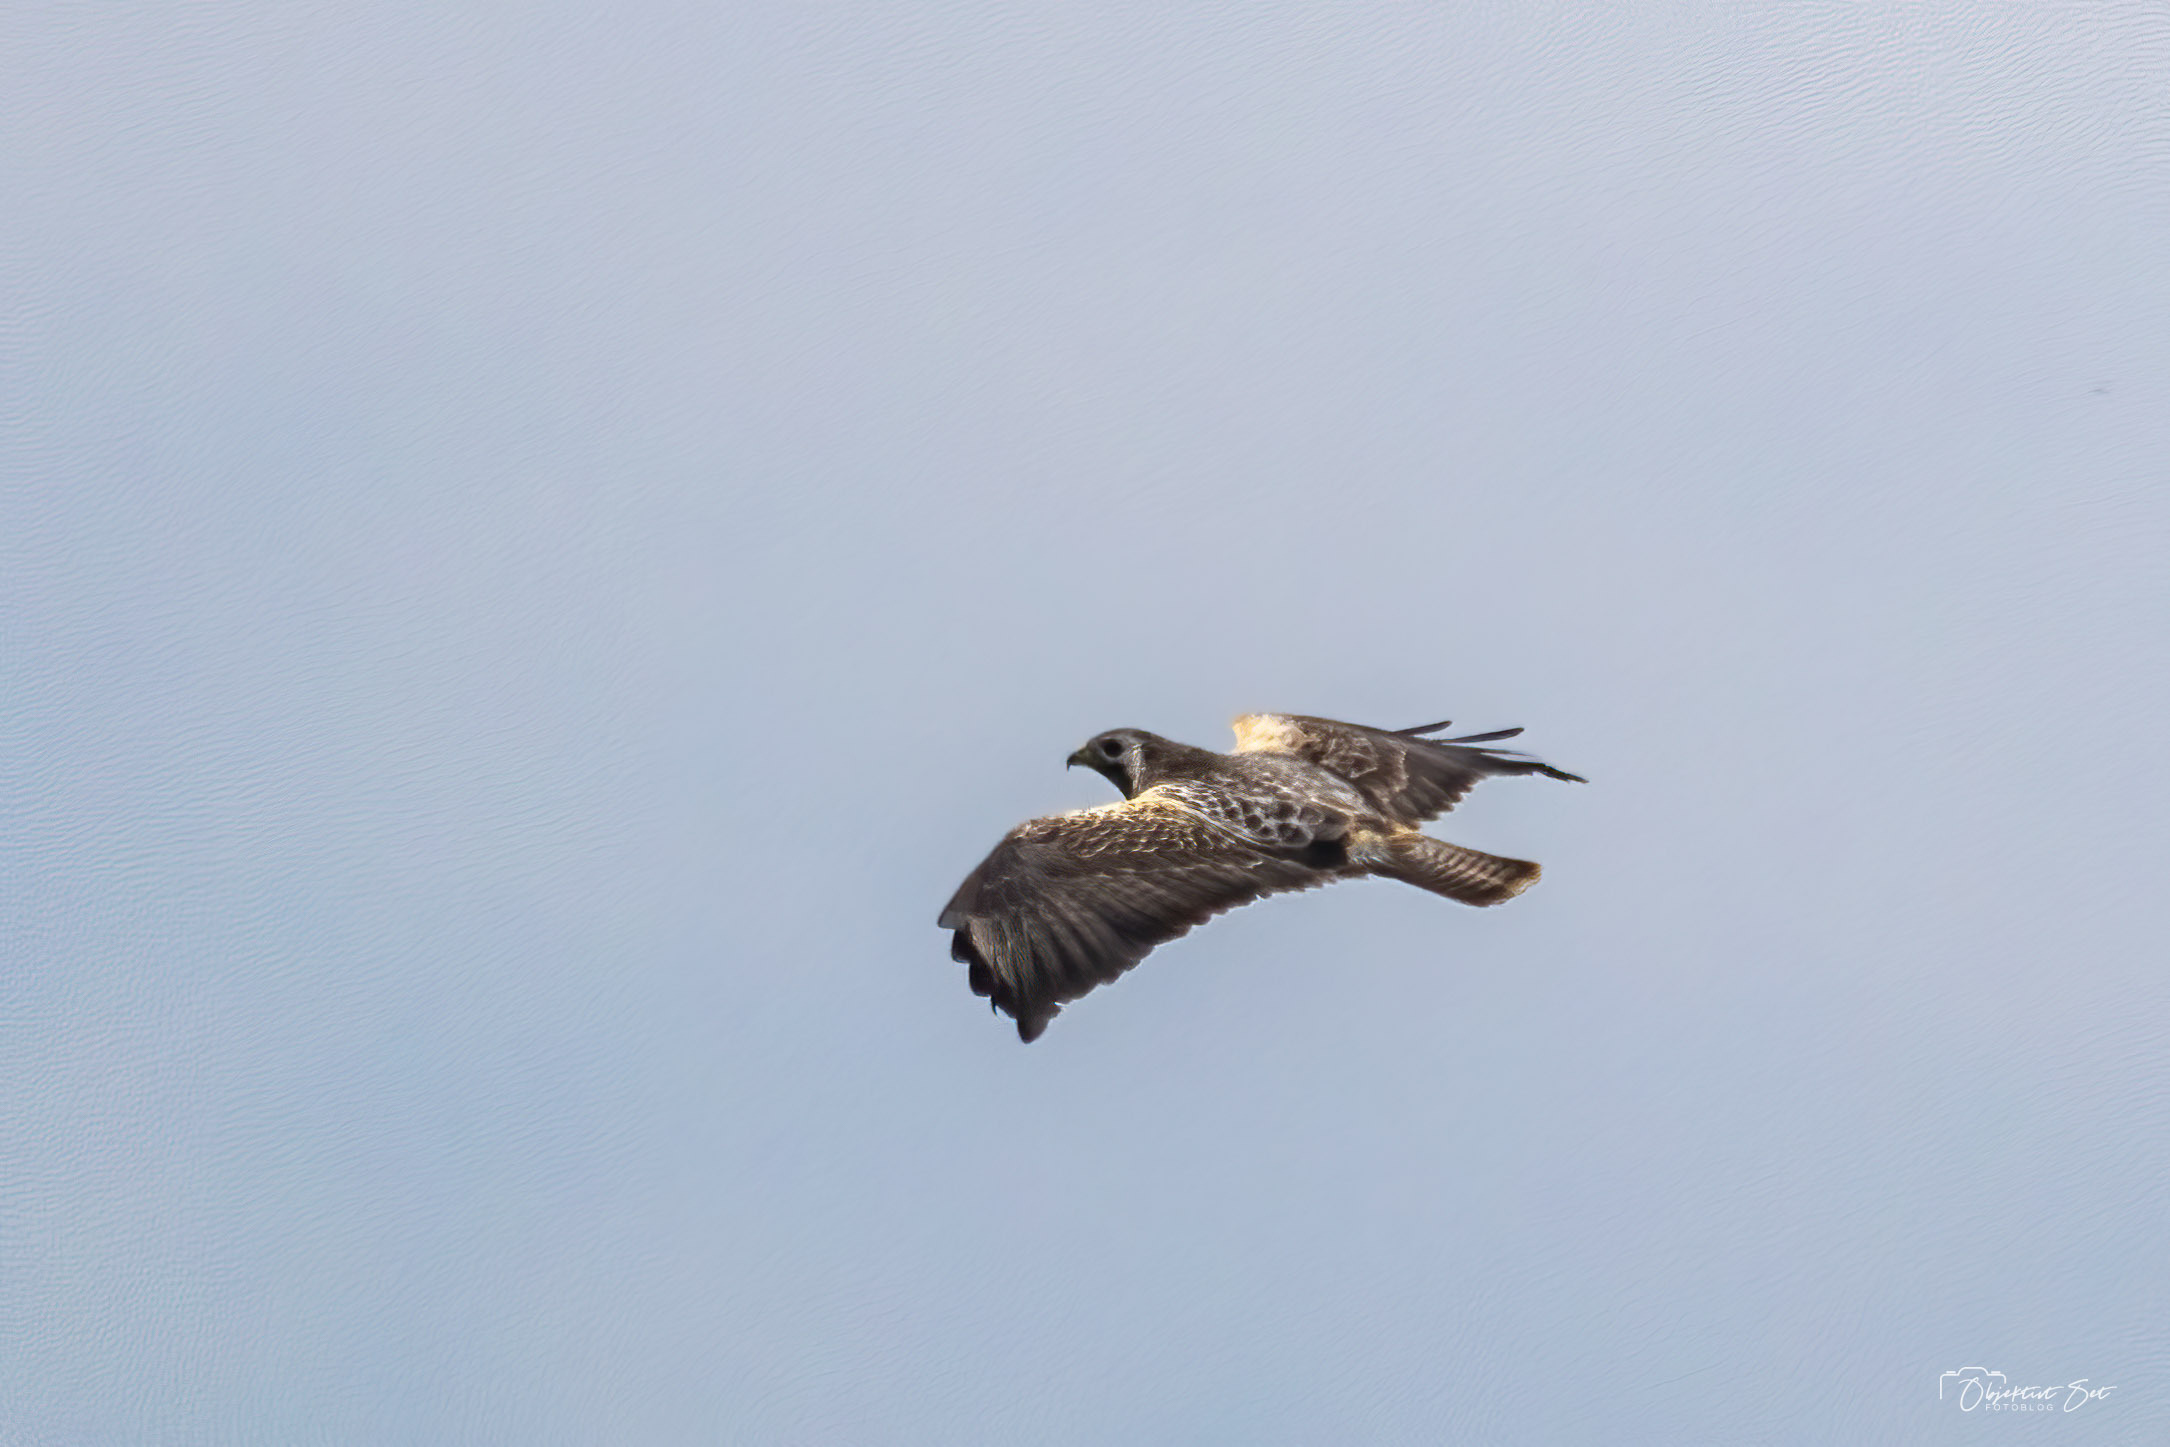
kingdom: Animalia
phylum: Chordata
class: Aves
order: Accipitriformes
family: Accipitridae
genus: Buteo
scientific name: Buteo buteo
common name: Musvåge
